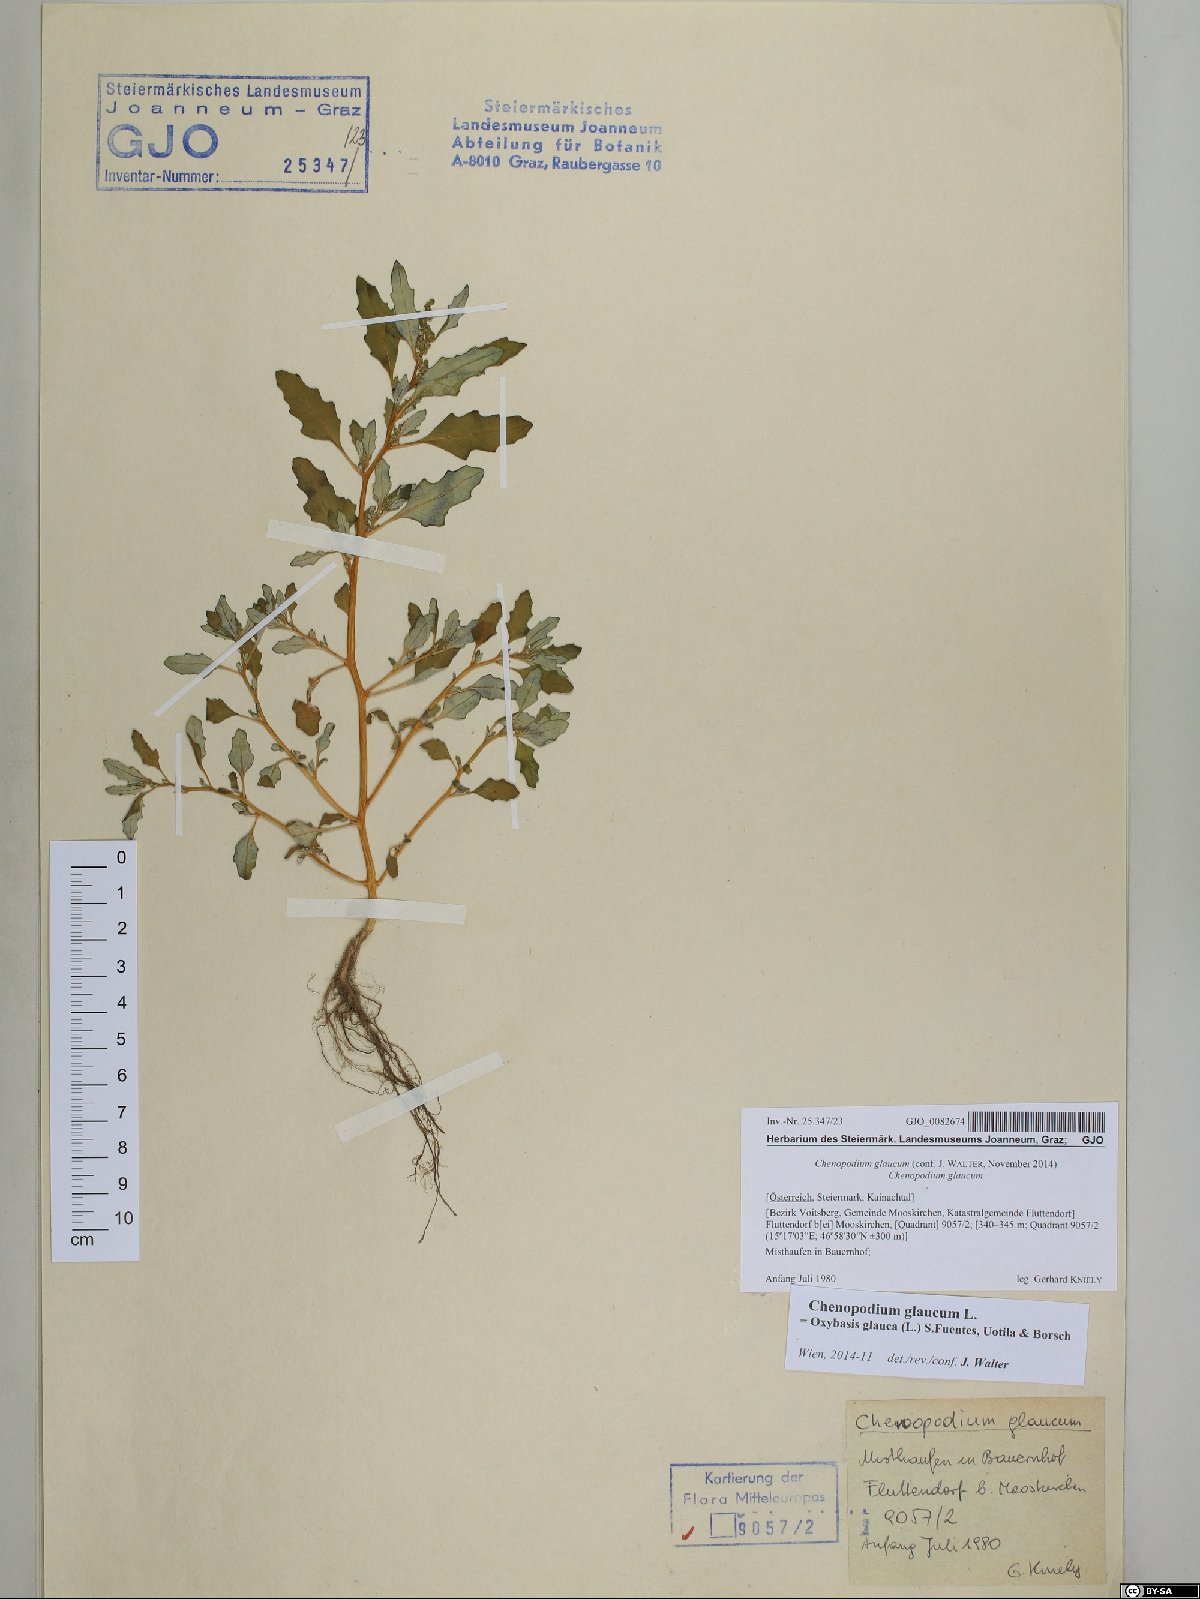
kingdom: Plantae
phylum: Tracheophyta
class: Magnoliopsida
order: Caryophyllales
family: Amaranthaceae
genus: Oxybasis
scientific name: Oxybasis glauca
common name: Glaucous goosefoot
